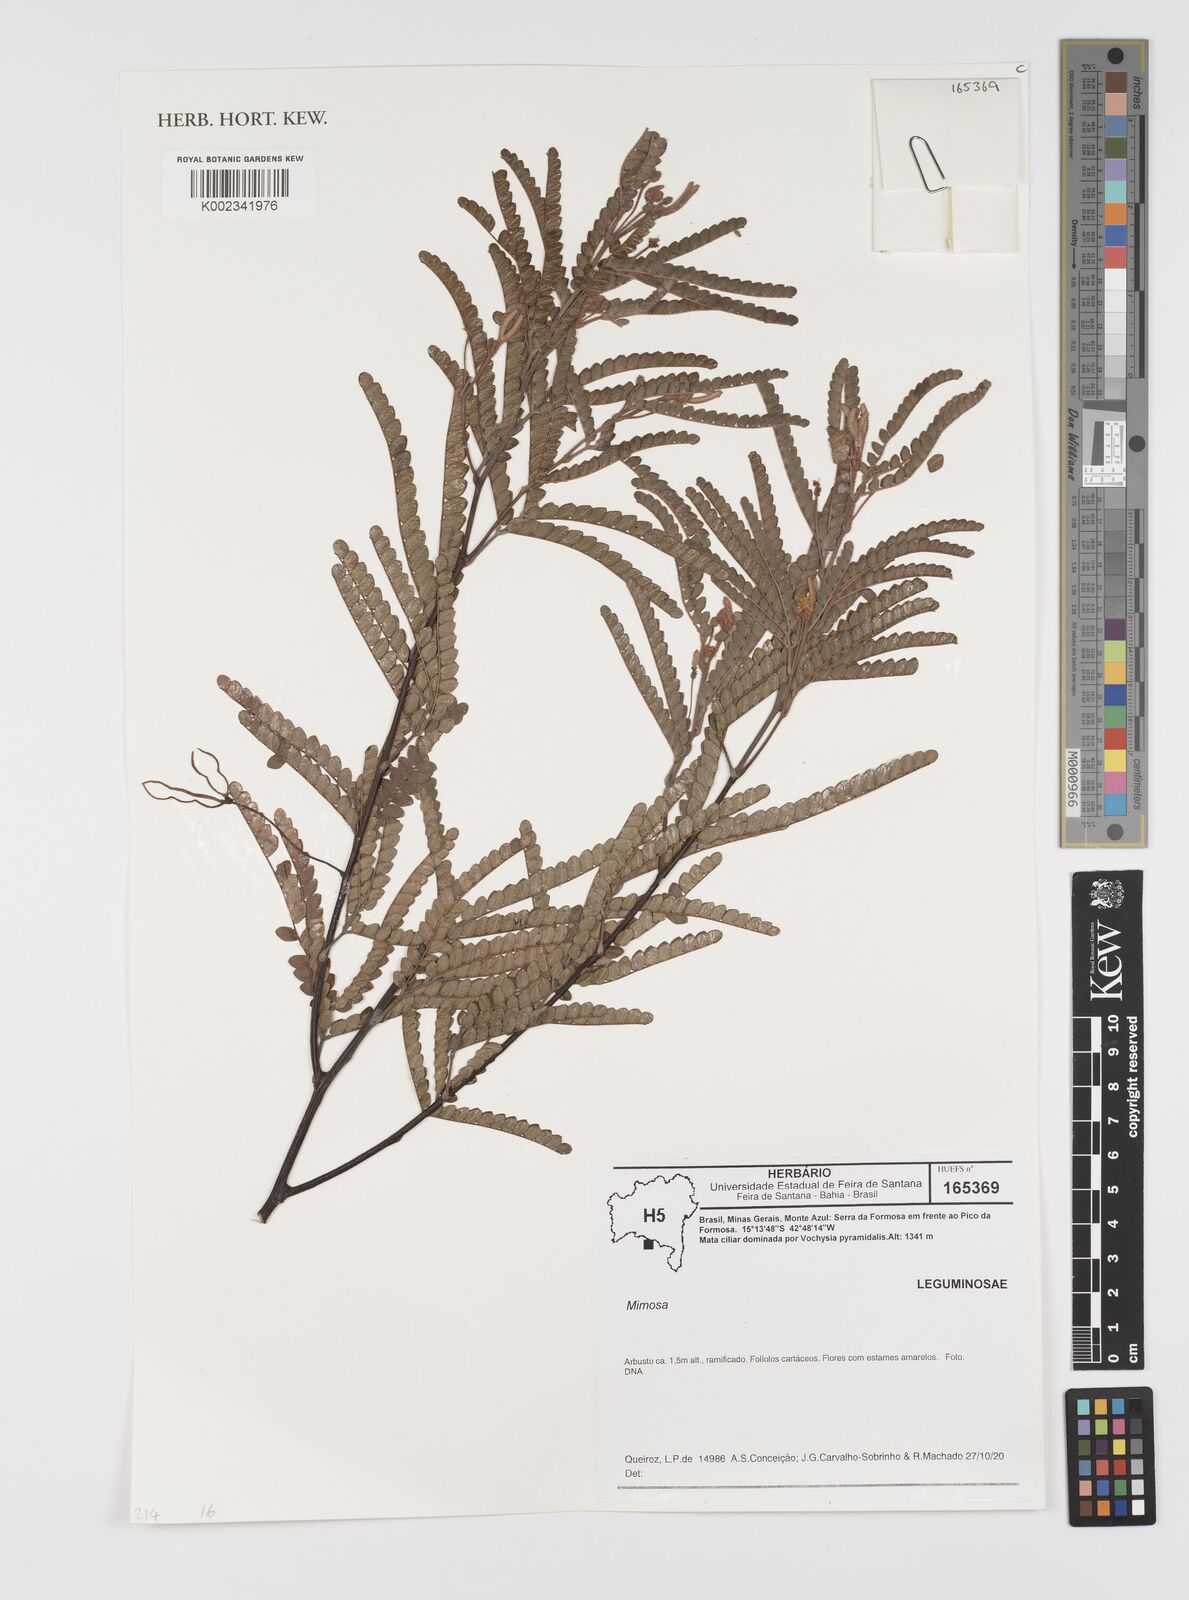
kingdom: Plantae
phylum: Tracheophyta
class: Magnoliopsida
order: Fabales
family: Fabaceae
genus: Mimosa
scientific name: Mimosa
